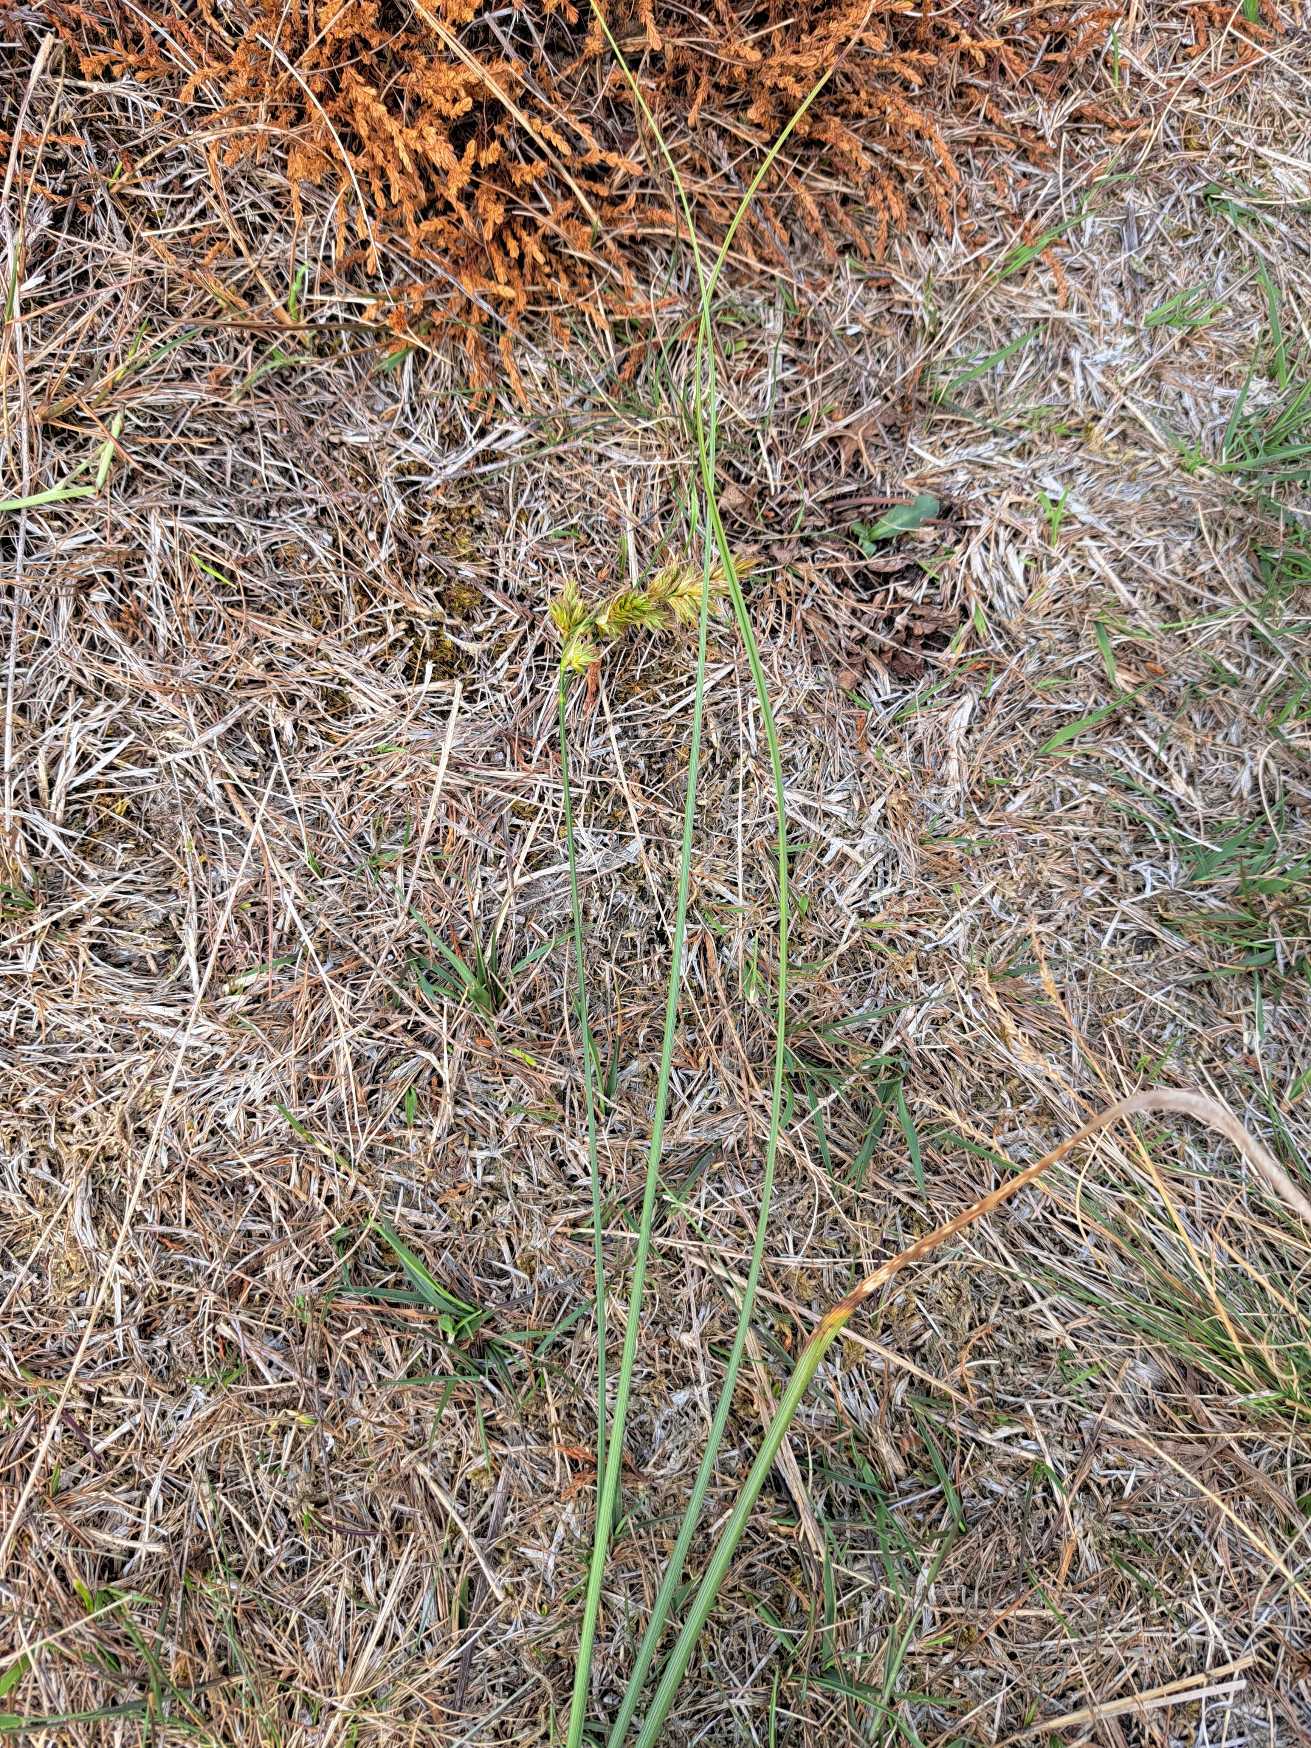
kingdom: Plantae
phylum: Tracheophyta
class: Liliopsida
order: Poales
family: Cyperaceae
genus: Carex
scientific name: Carex arenaria
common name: Sand-star
